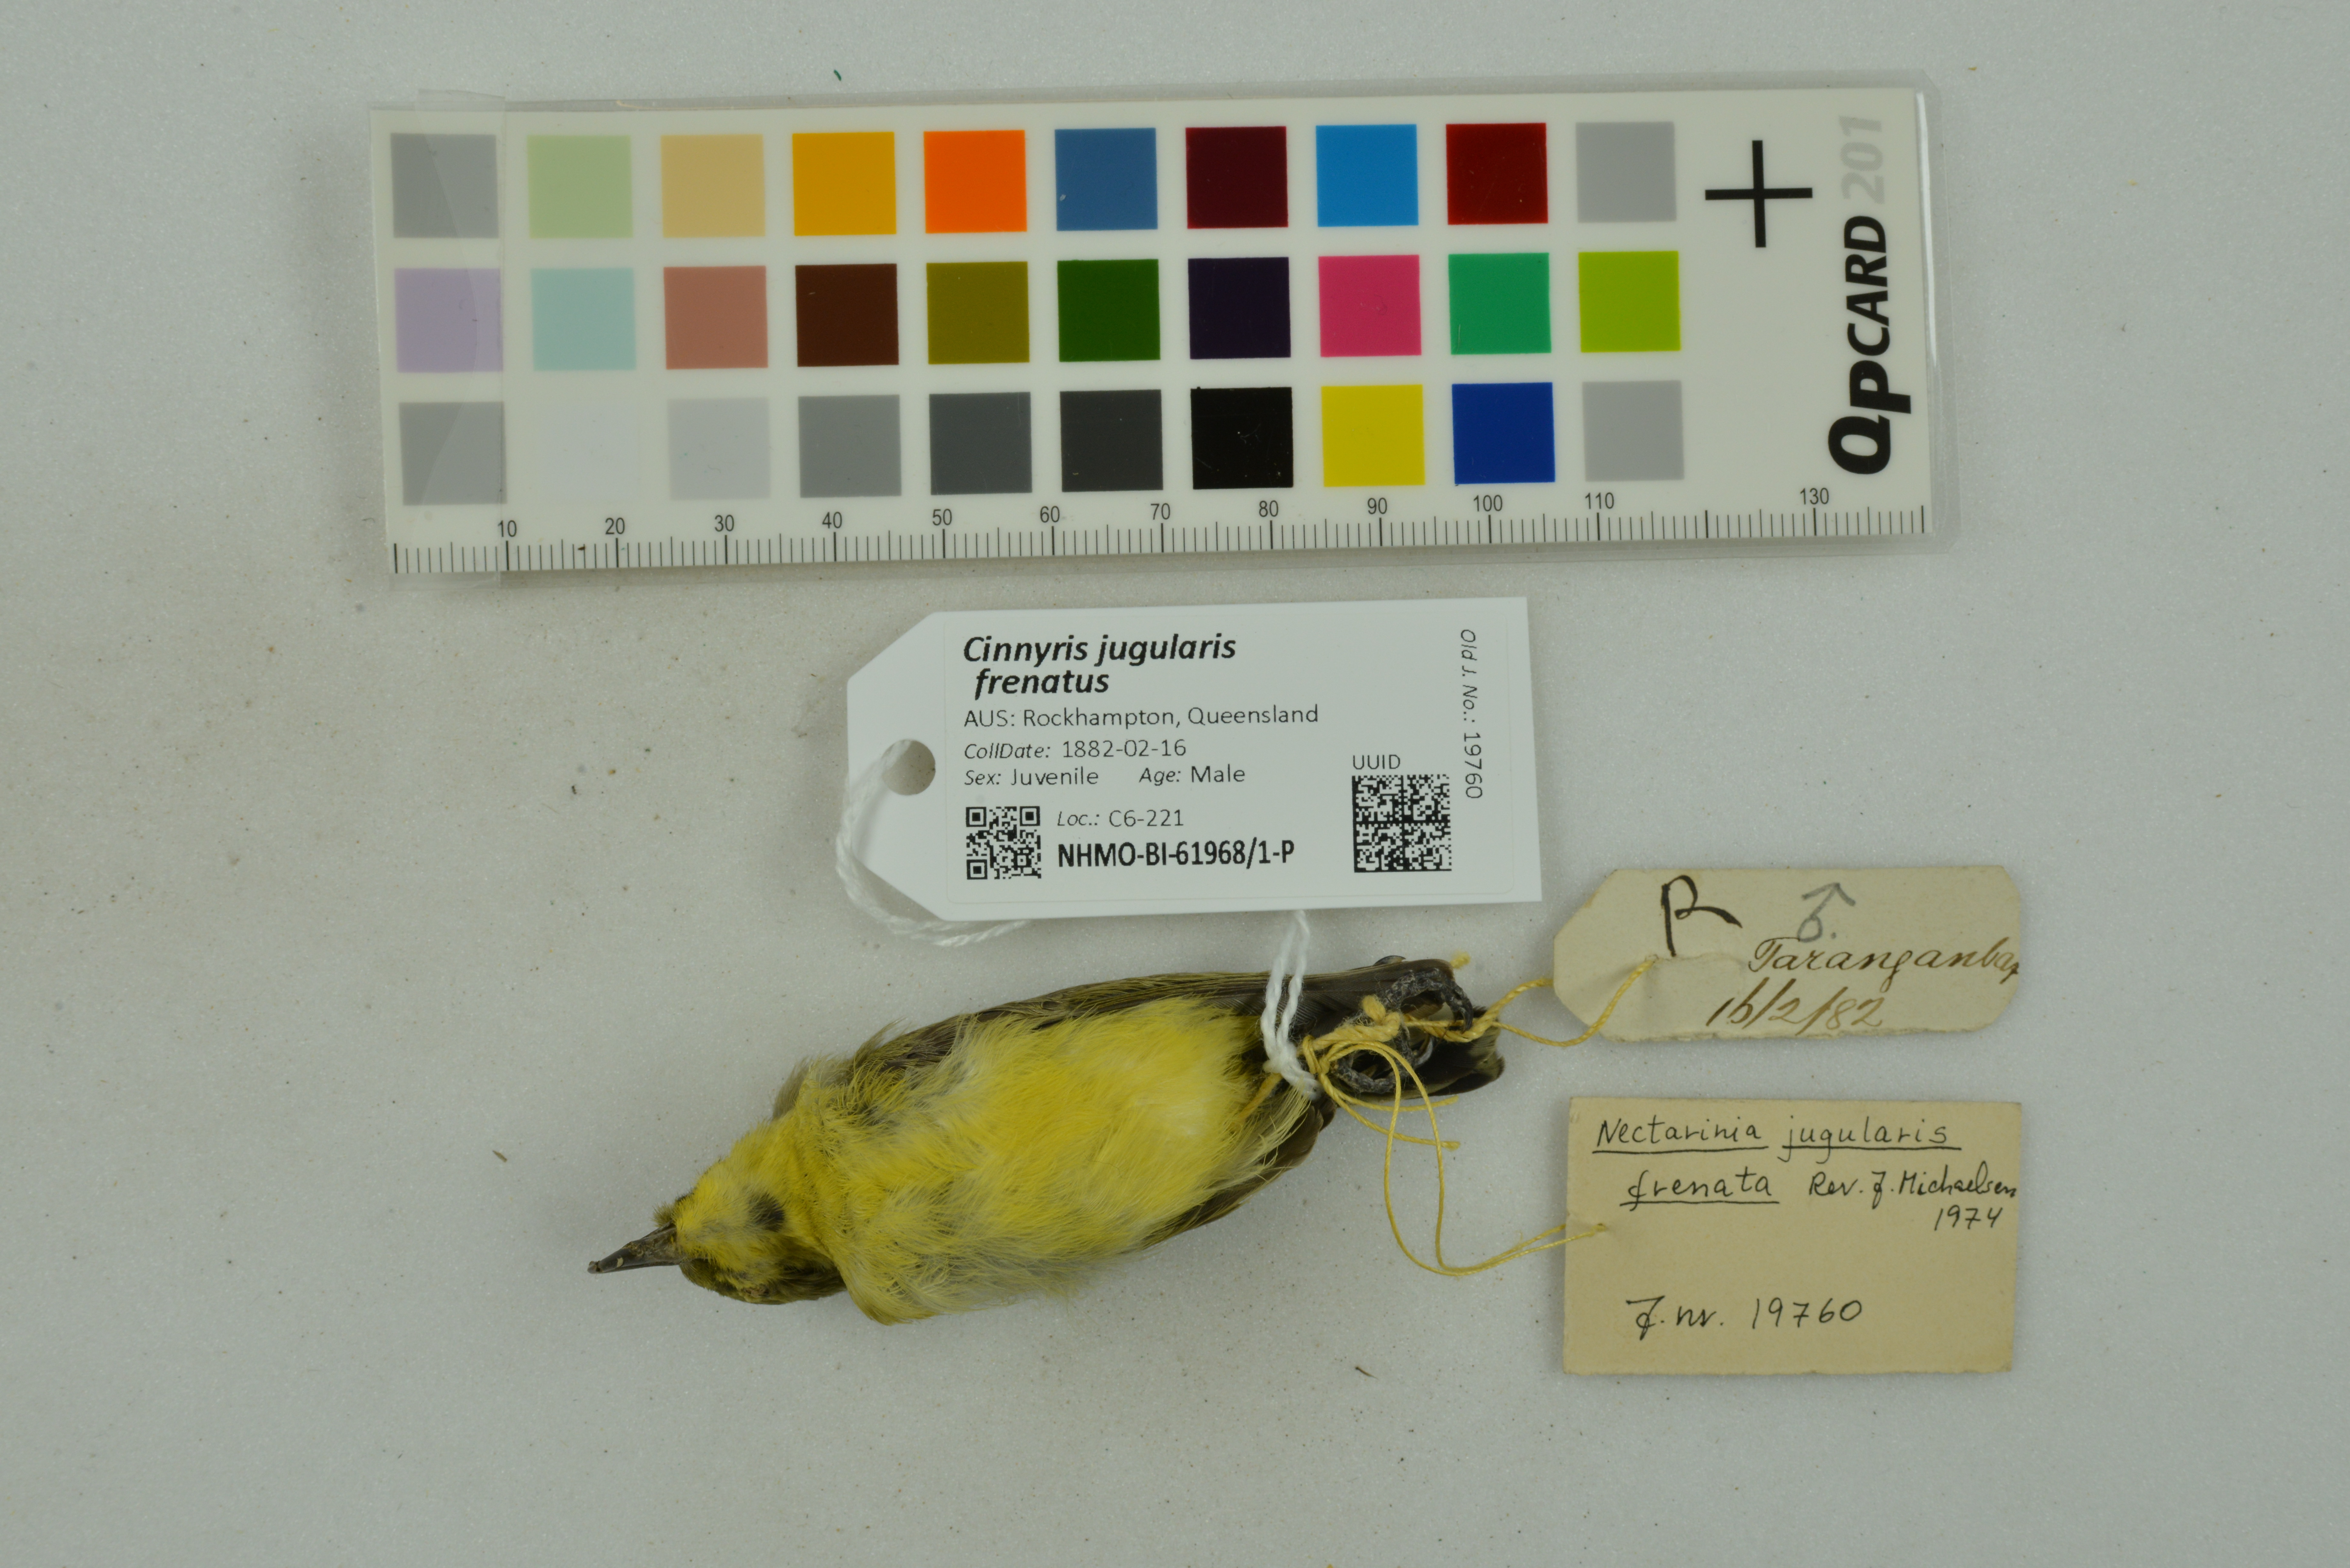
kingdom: Animalia
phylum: Chordata
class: Aves
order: Passeriformes
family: Nectariniidae
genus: Cinnyris
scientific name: Cinnyris jugularis
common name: Olive-backed sunbird
